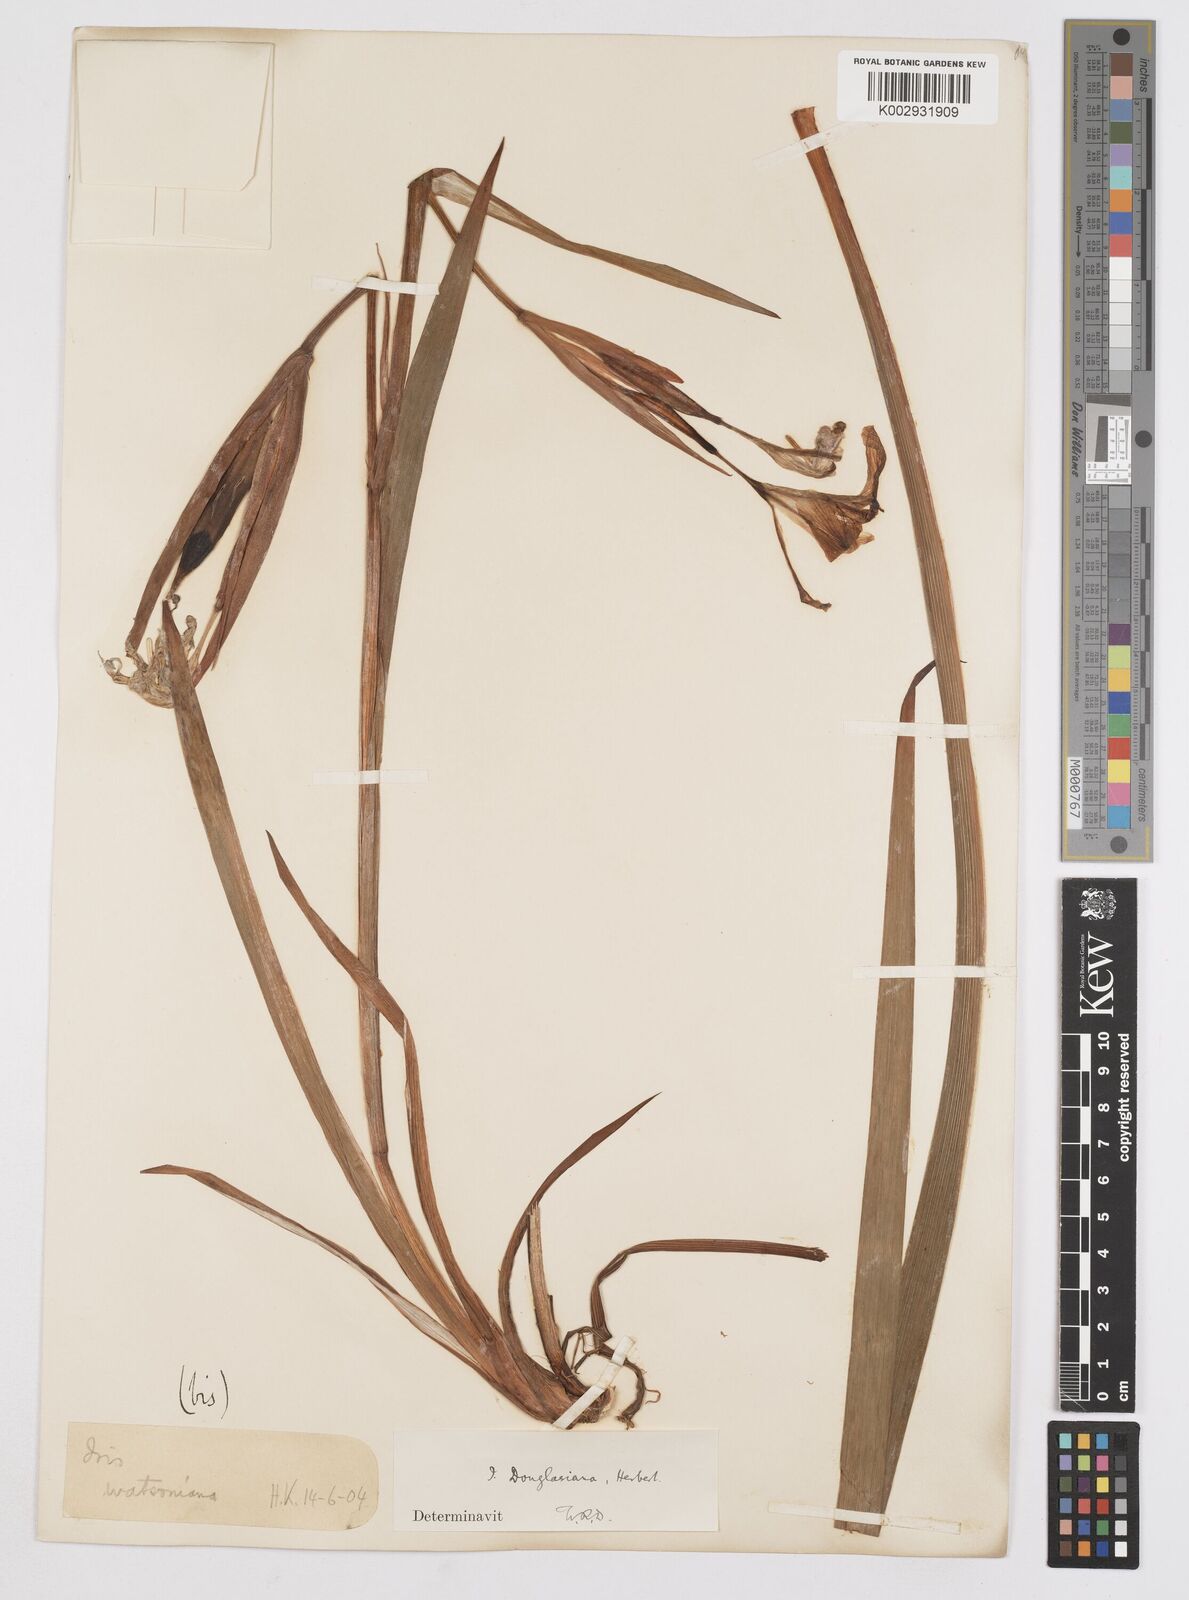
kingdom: Plantae
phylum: Tracheophyta
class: Liliopsida
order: Asparagales
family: Iridaceae
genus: Iris
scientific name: Iris douglasiana
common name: Marin iris
